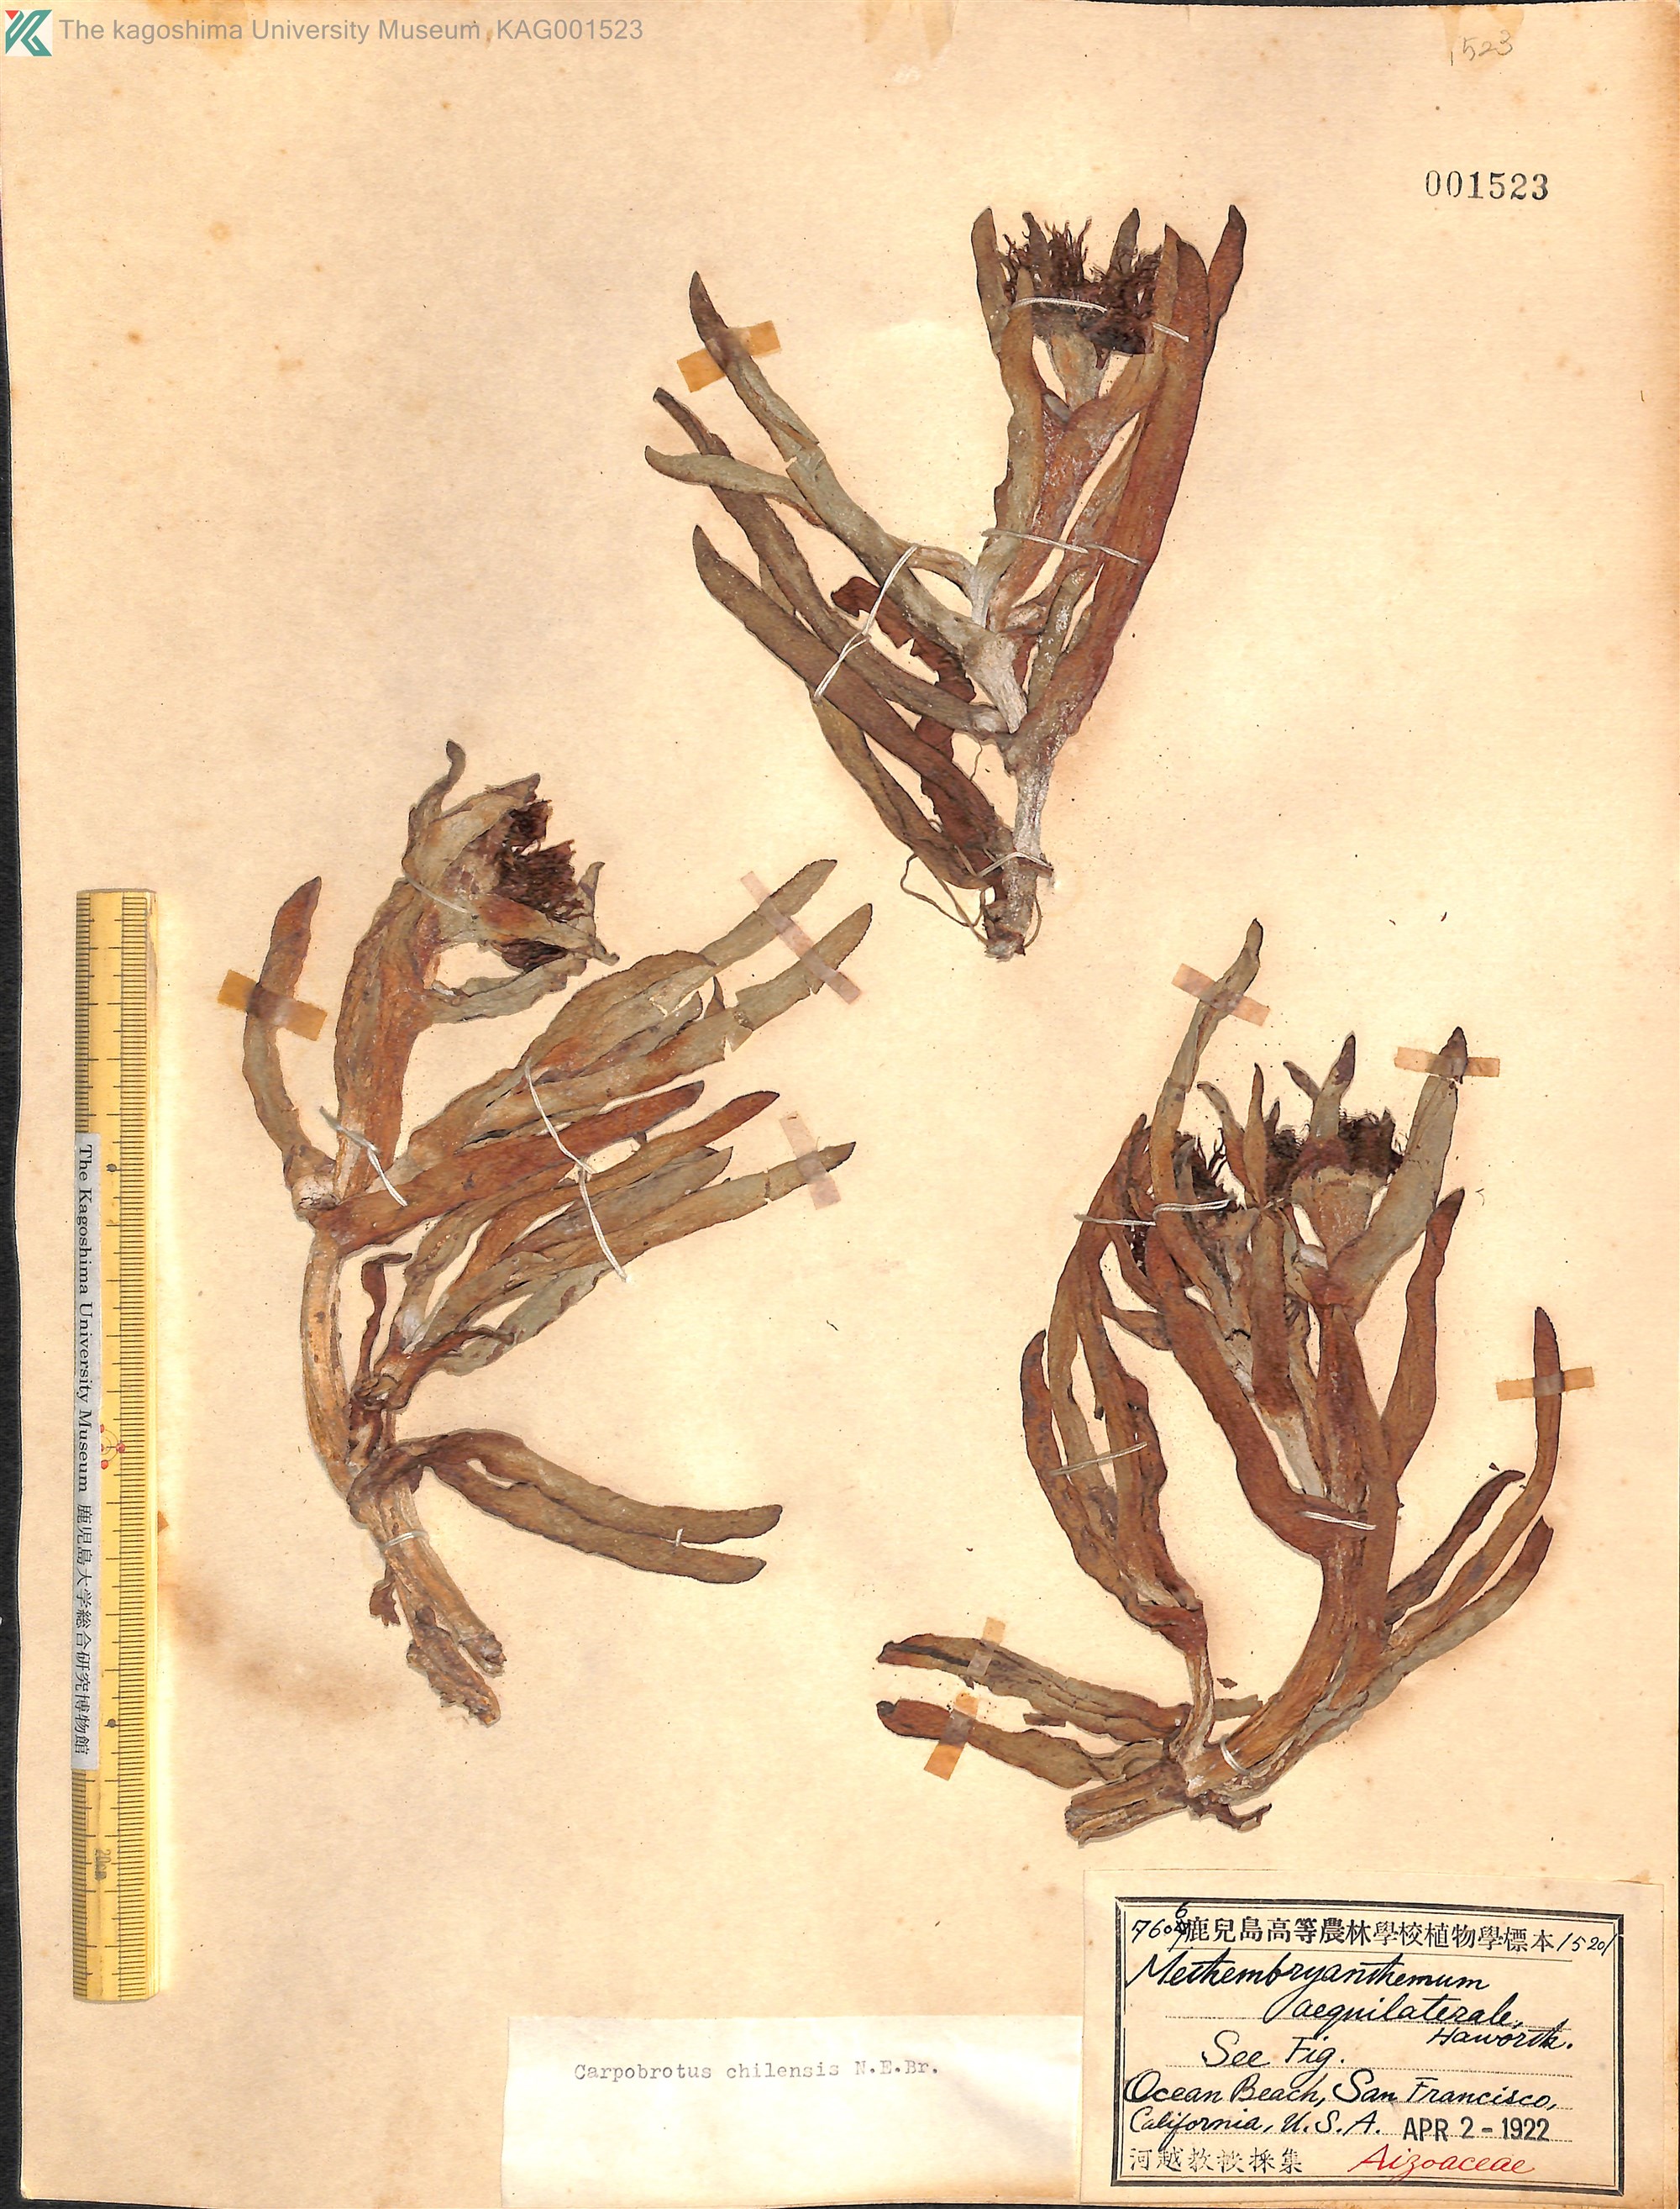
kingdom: Plantae
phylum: Tracheophyta
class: Magnoliopsida
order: Caryophyllales
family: Aizoaceae
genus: Carpobrotus
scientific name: Carpobrotus chilensis
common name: Sea fig
